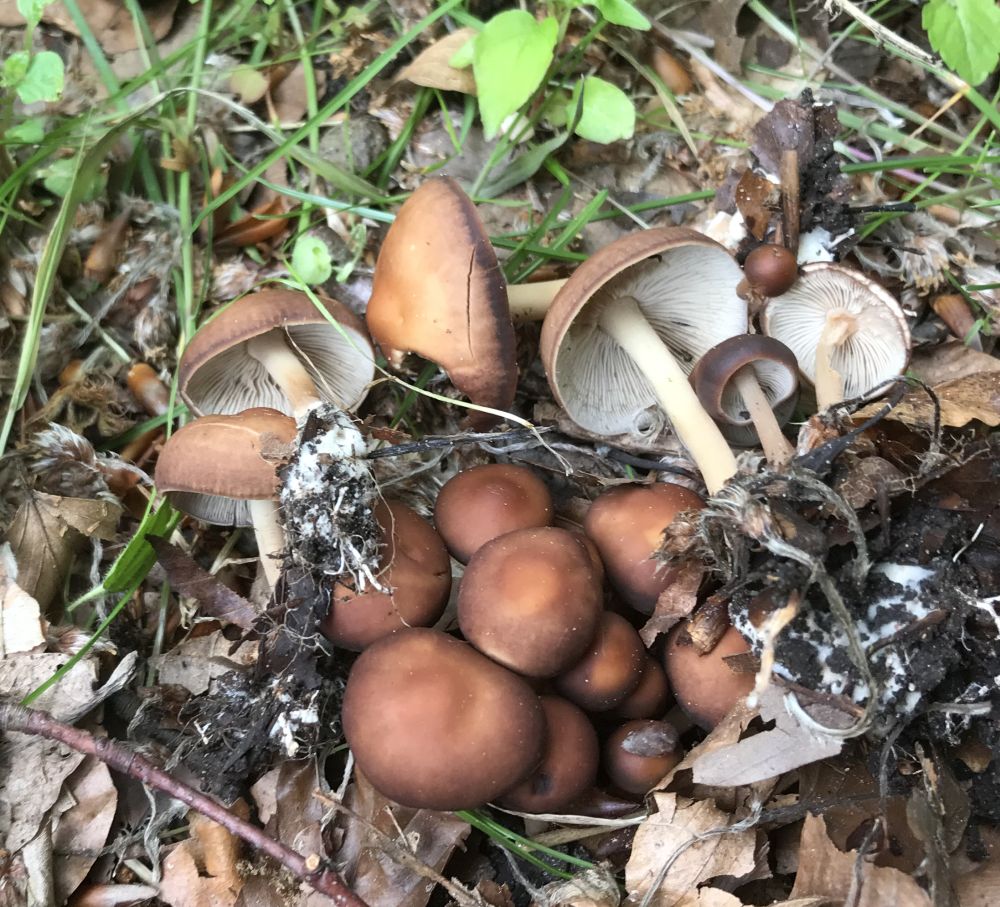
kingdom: Fungi
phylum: Basidiomycota
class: Agaricomycetes
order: Agaricales
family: Omphalotaceae
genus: Gymnopus
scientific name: Gymnopus ocior
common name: mørk fladhat
